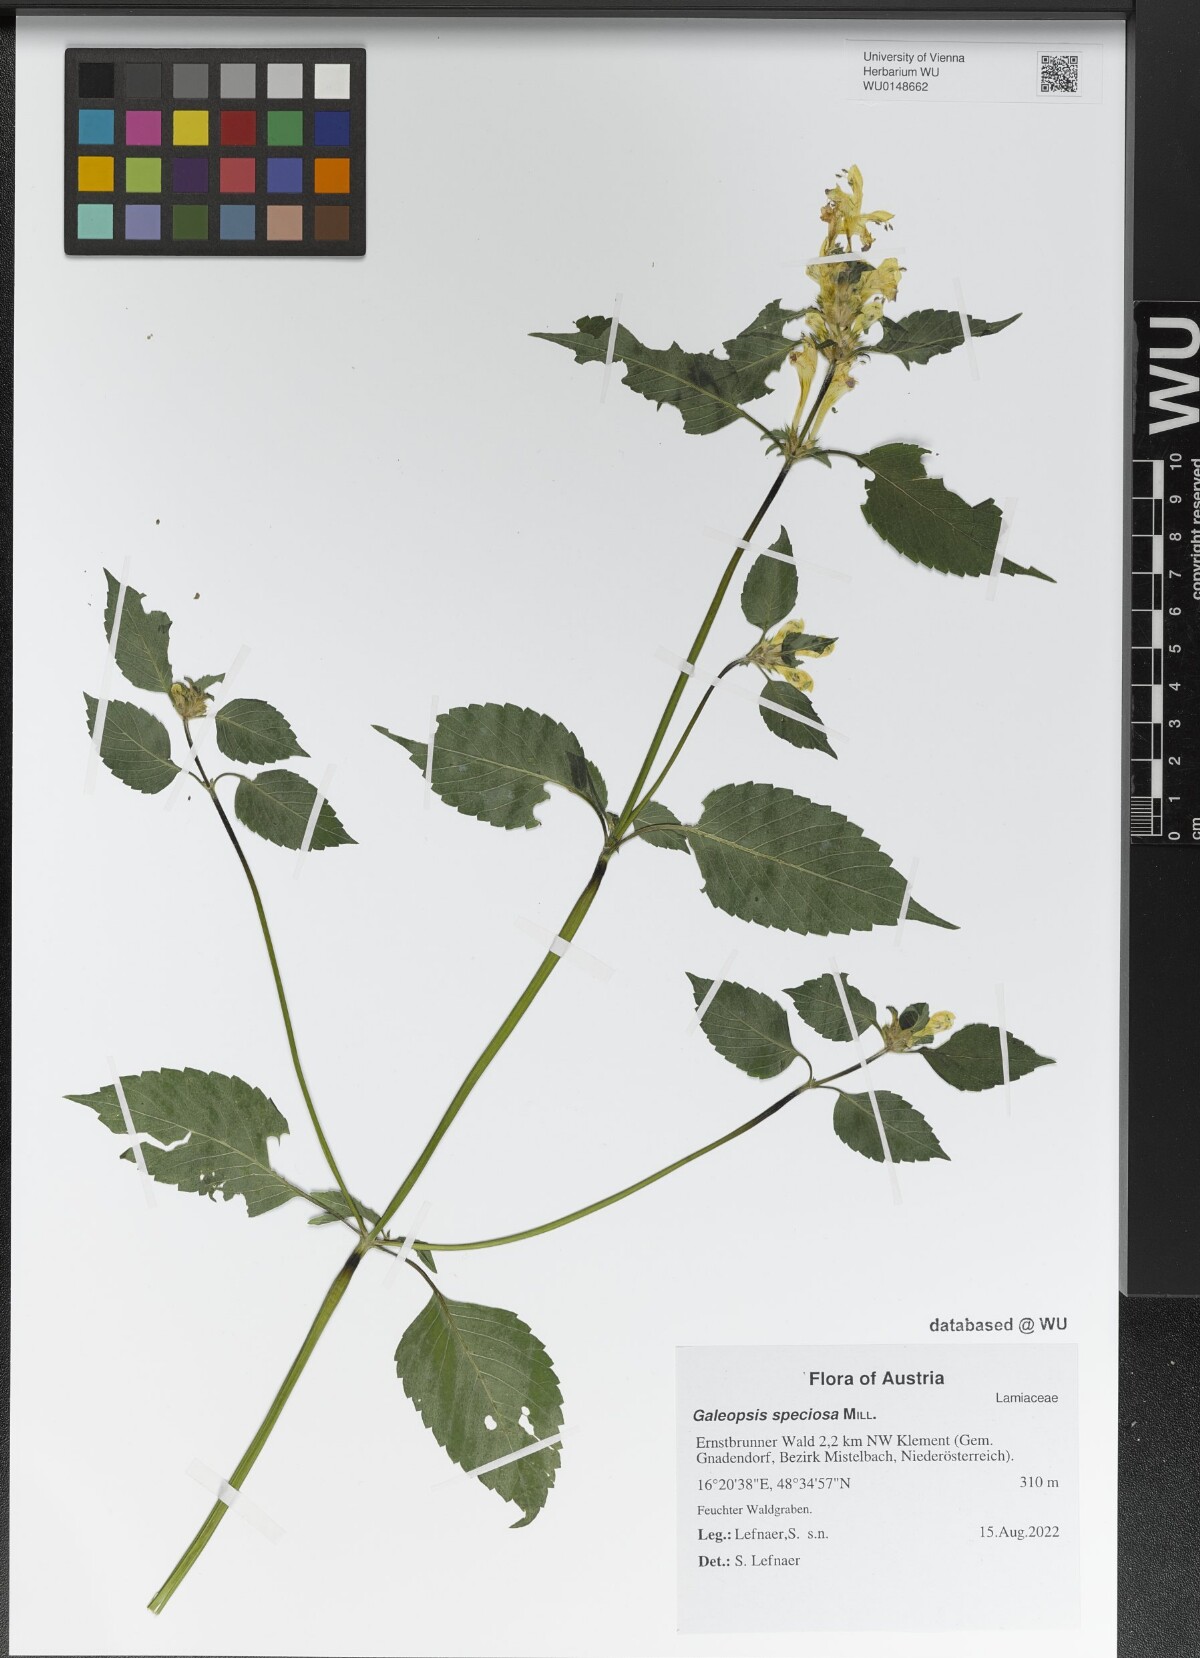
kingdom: Plantae
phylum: Tracheophyta
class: Magnoliopsida
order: Lamiales
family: Lamiaceae
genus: Galeopsis
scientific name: Galeopsis speciosa
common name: Large-flowered hemp-nettle
